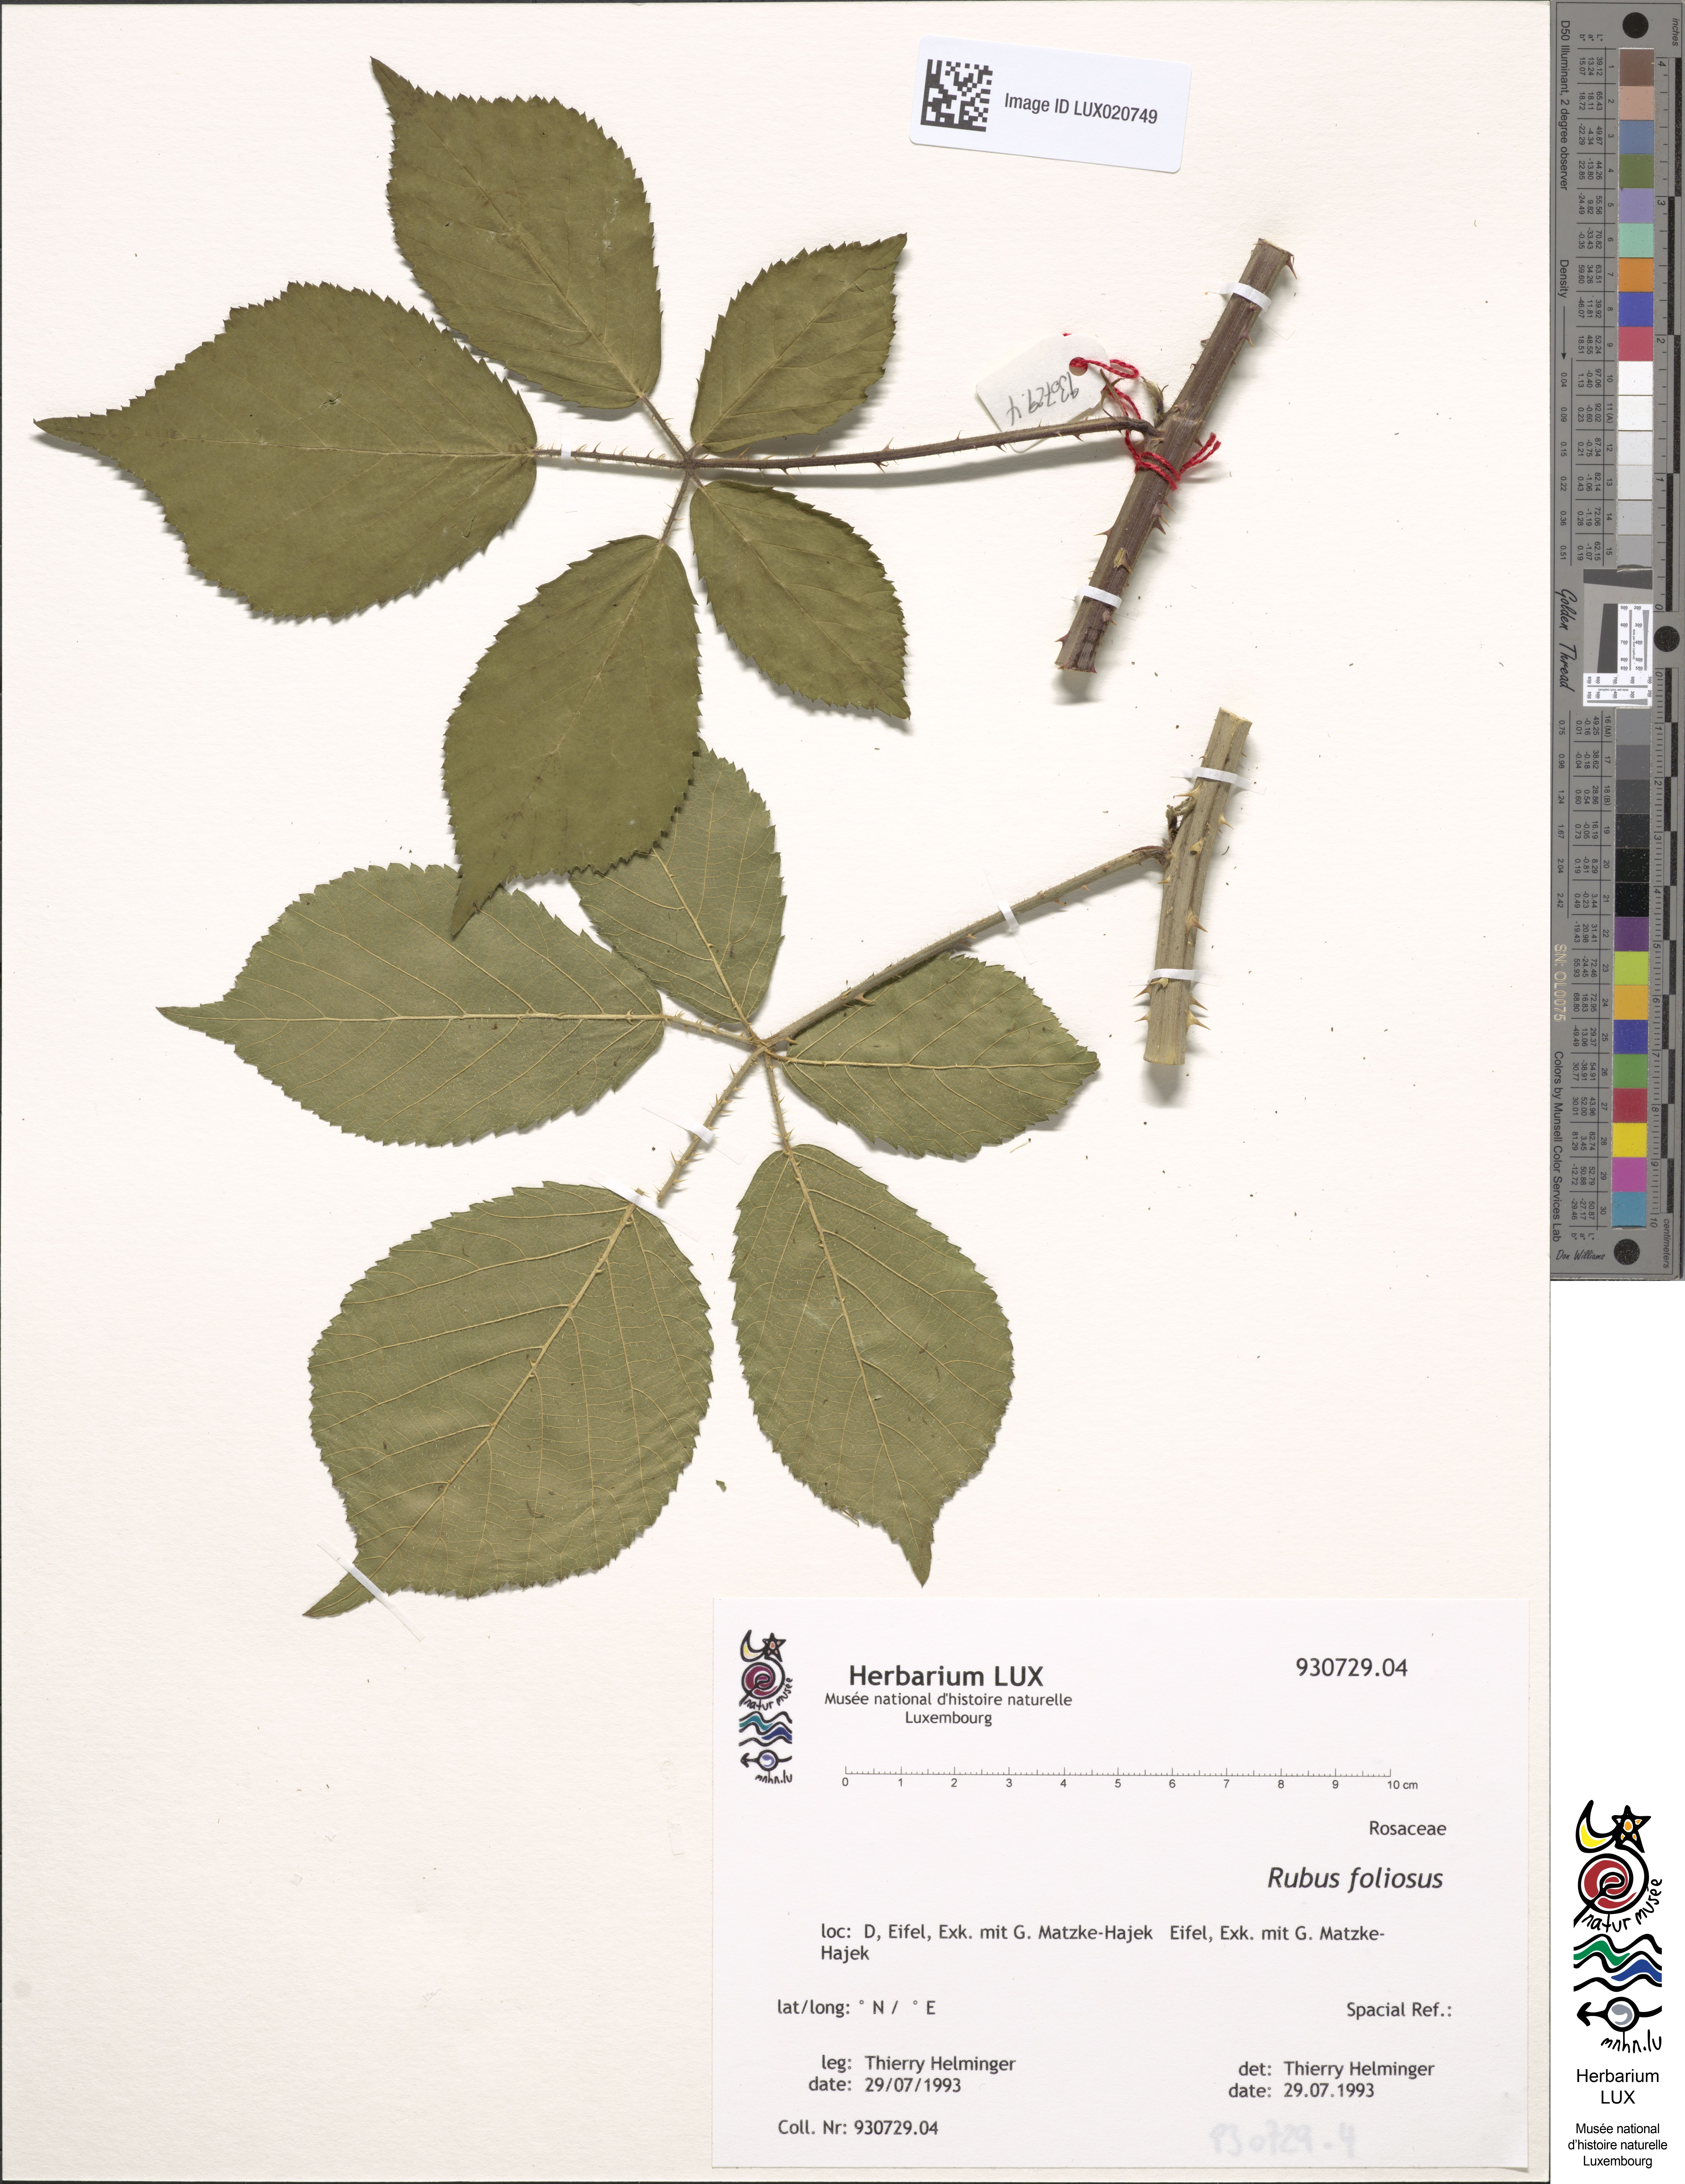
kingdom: Plantae
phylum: Tracheophyta
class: Magnoliopsida
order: Rosales
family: Rosaceae
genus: Rubus
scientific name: Rubus foliosus
